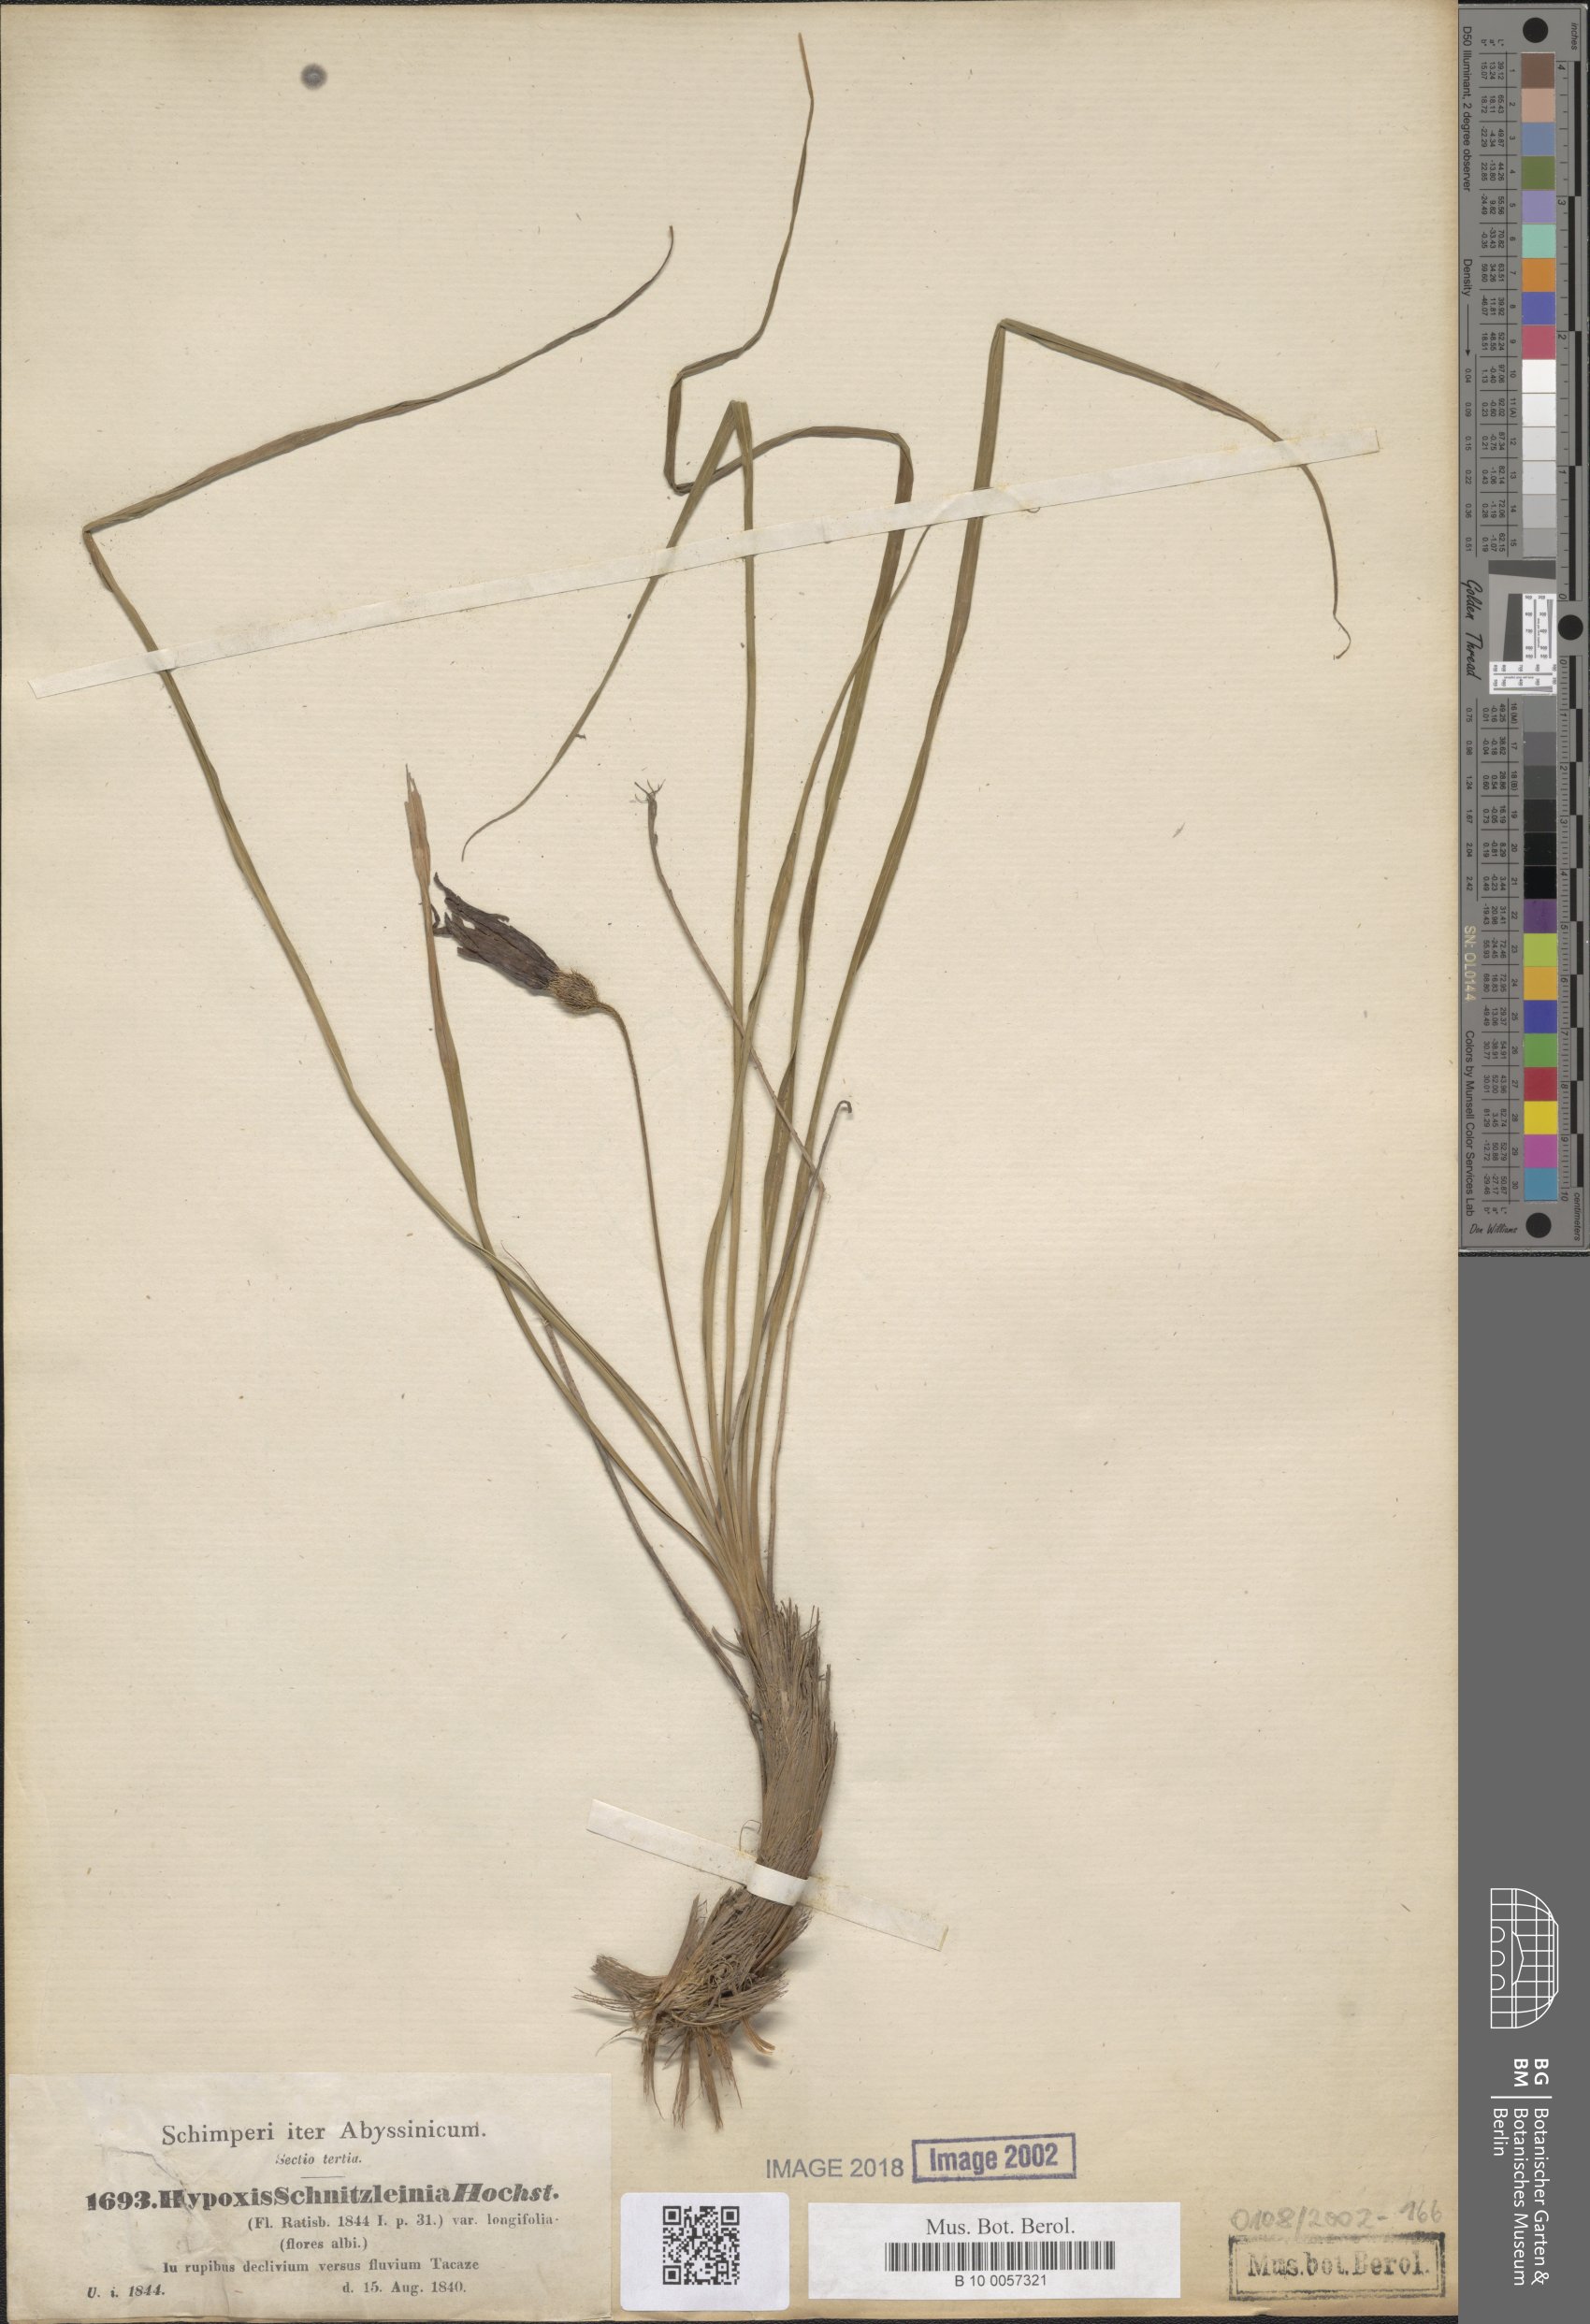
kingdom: Plantae
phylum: Tracheophyta
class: Liliopsida
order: Pandanales
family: Velloziaceae
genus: Xerophyta
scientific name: Xerophyta schnizleinia
